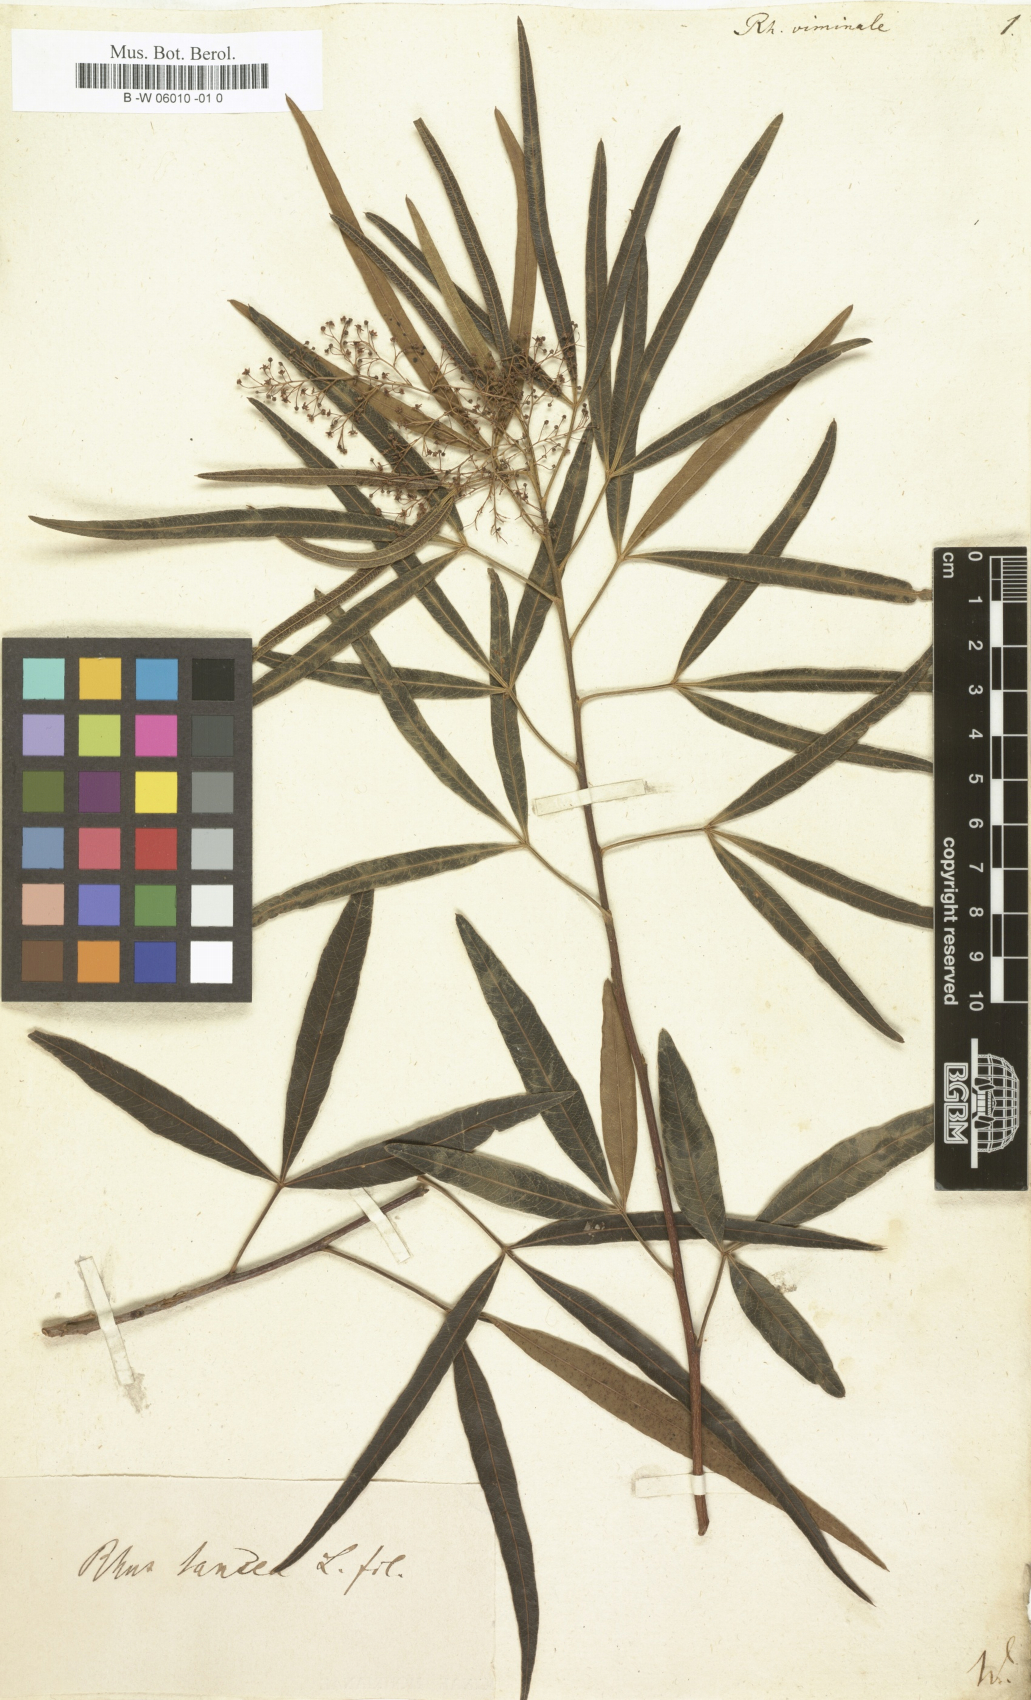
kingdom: Plantae
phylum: Tracheophyta
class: Magnoliopsida
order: Sapindales
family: Anacardiaceae
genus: Searsia
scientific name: Searsia
